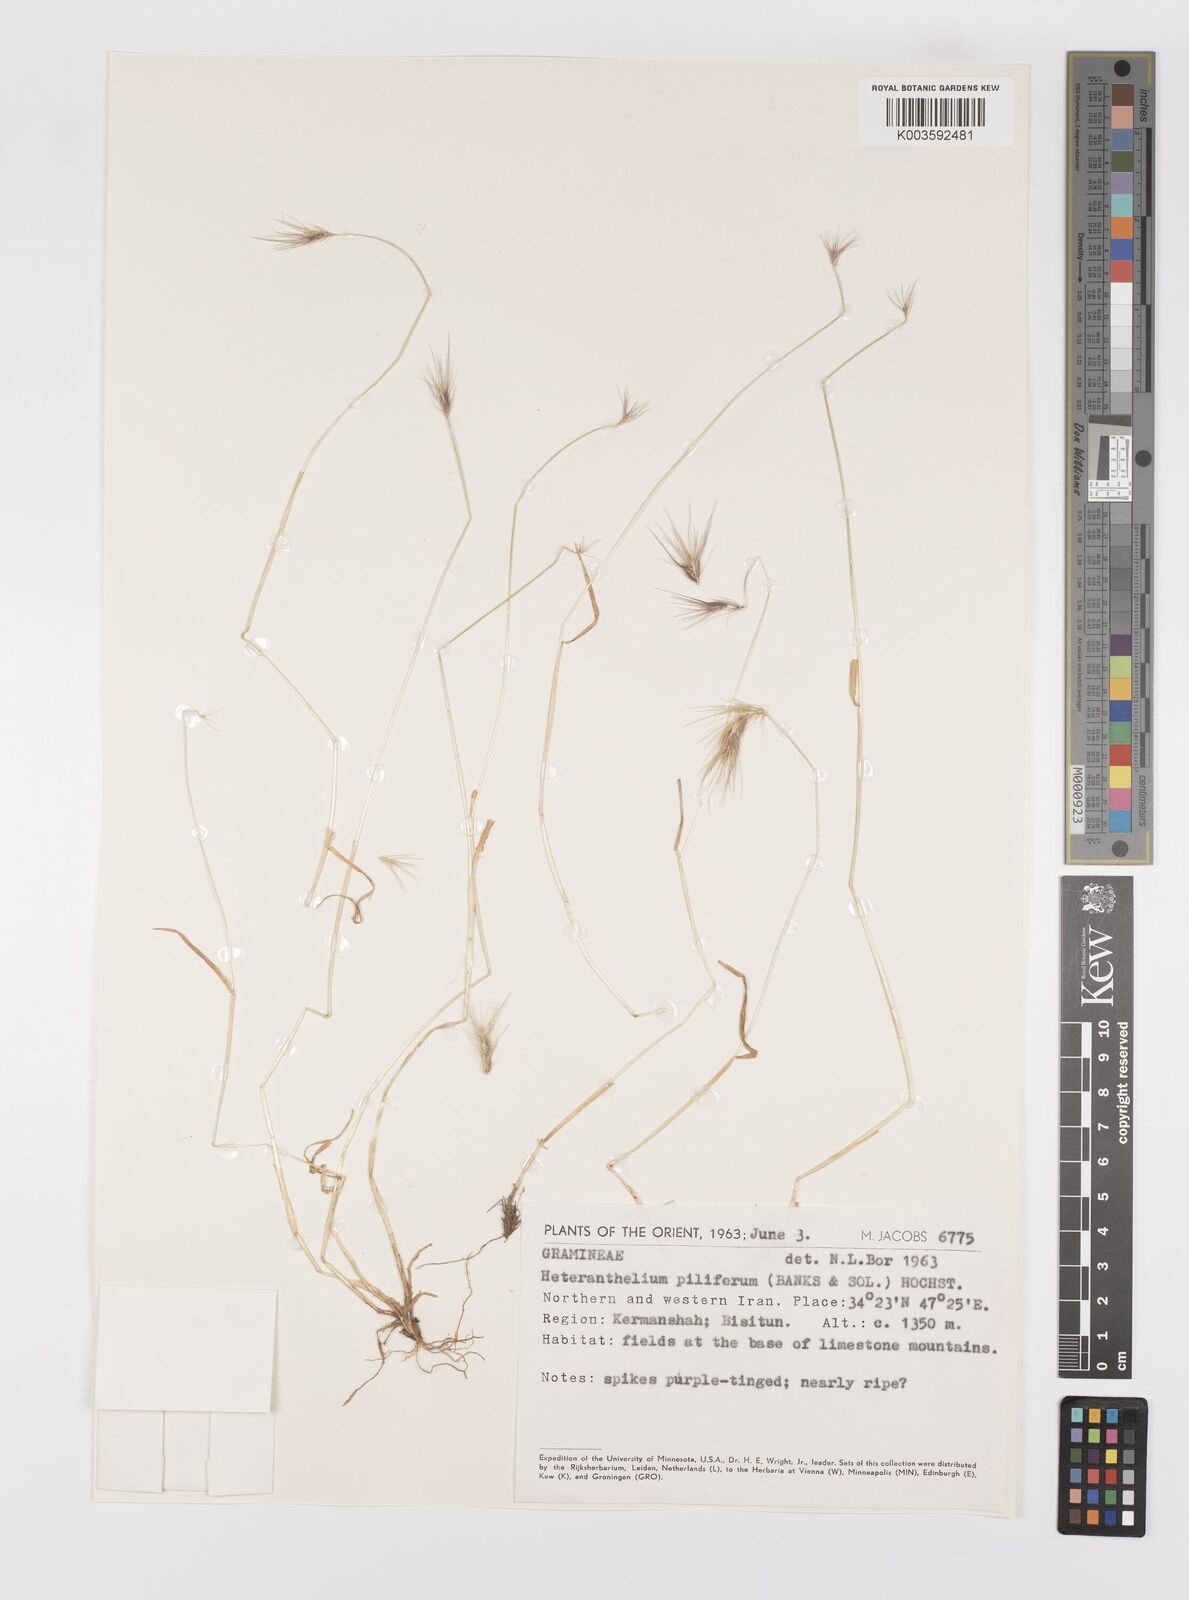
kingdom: Plantae
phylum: Tracheophyta
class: Liliopsida
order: Poales
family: Poaceae
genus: Heteranthelium
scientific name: Heteranthelium piliferum
